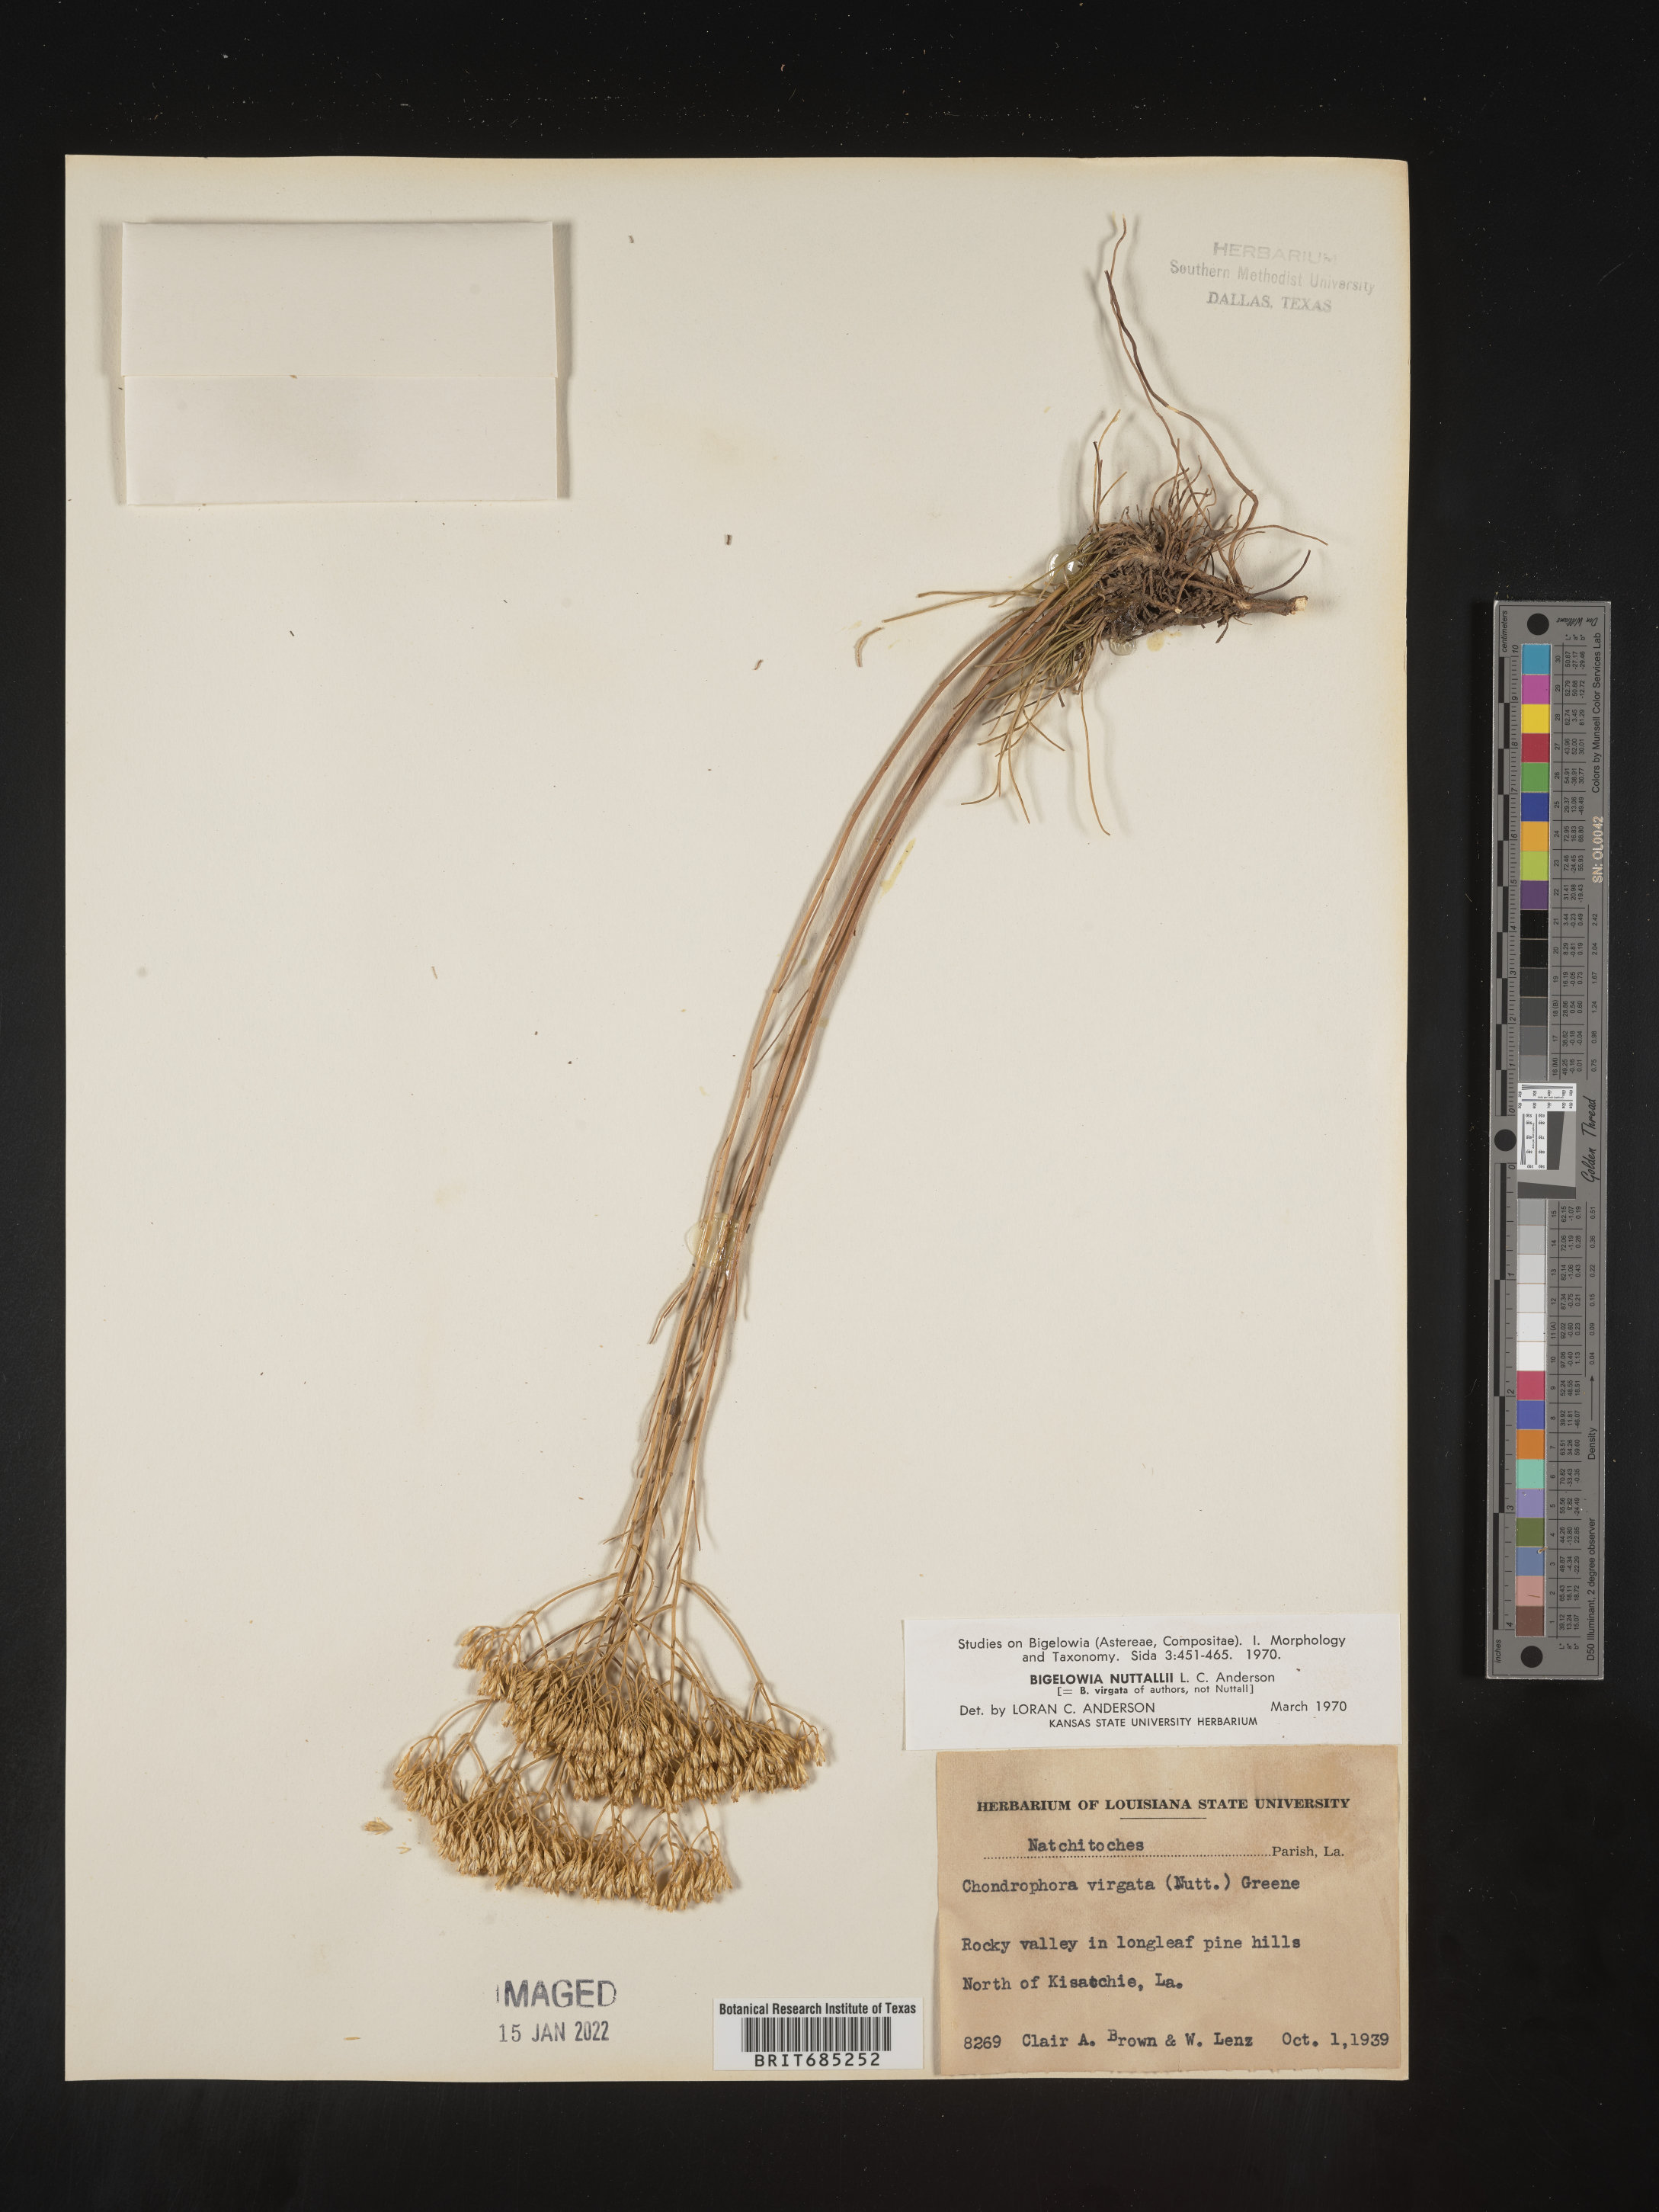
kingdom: Plantae
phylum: Tracheophyta
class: Magnoliopsida
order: Asterales
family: Asteraceae
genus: Bigelowia
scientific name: Bigelowia nuttallii
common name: Nuttall's rayless-goldenrod
